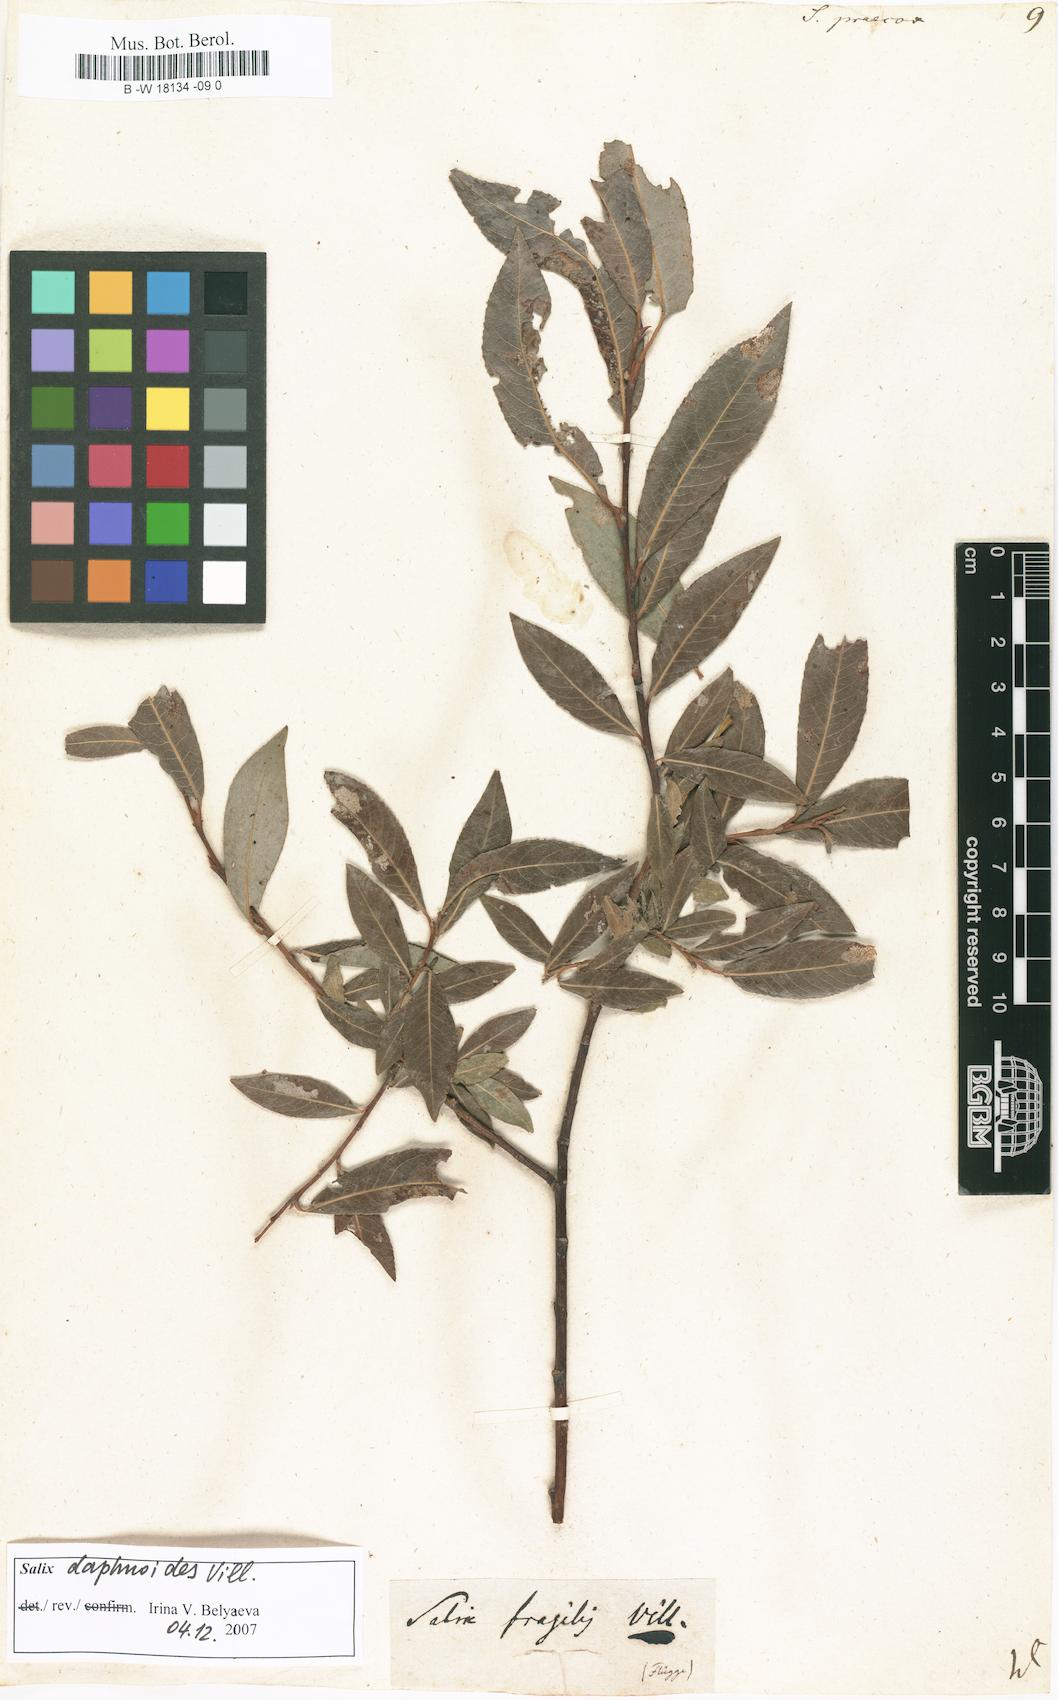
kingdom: Plantae
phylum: Tracheophyta
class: Magnoliopsida
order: Malpighiales
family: Salicaceae
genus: Salix
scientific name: Salix
